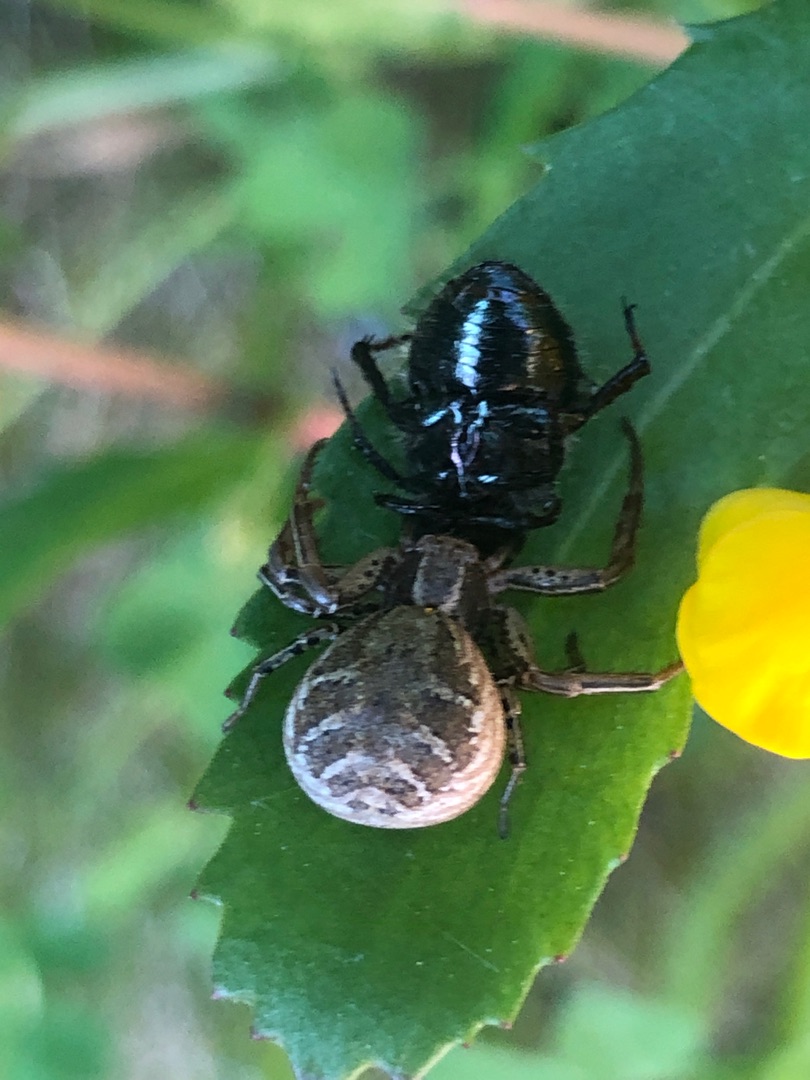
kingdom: Animalia
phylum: Arthropoda
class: Arachnida
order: Araneae
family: Thomisidae
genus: Xysticus
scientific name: Xysticus
